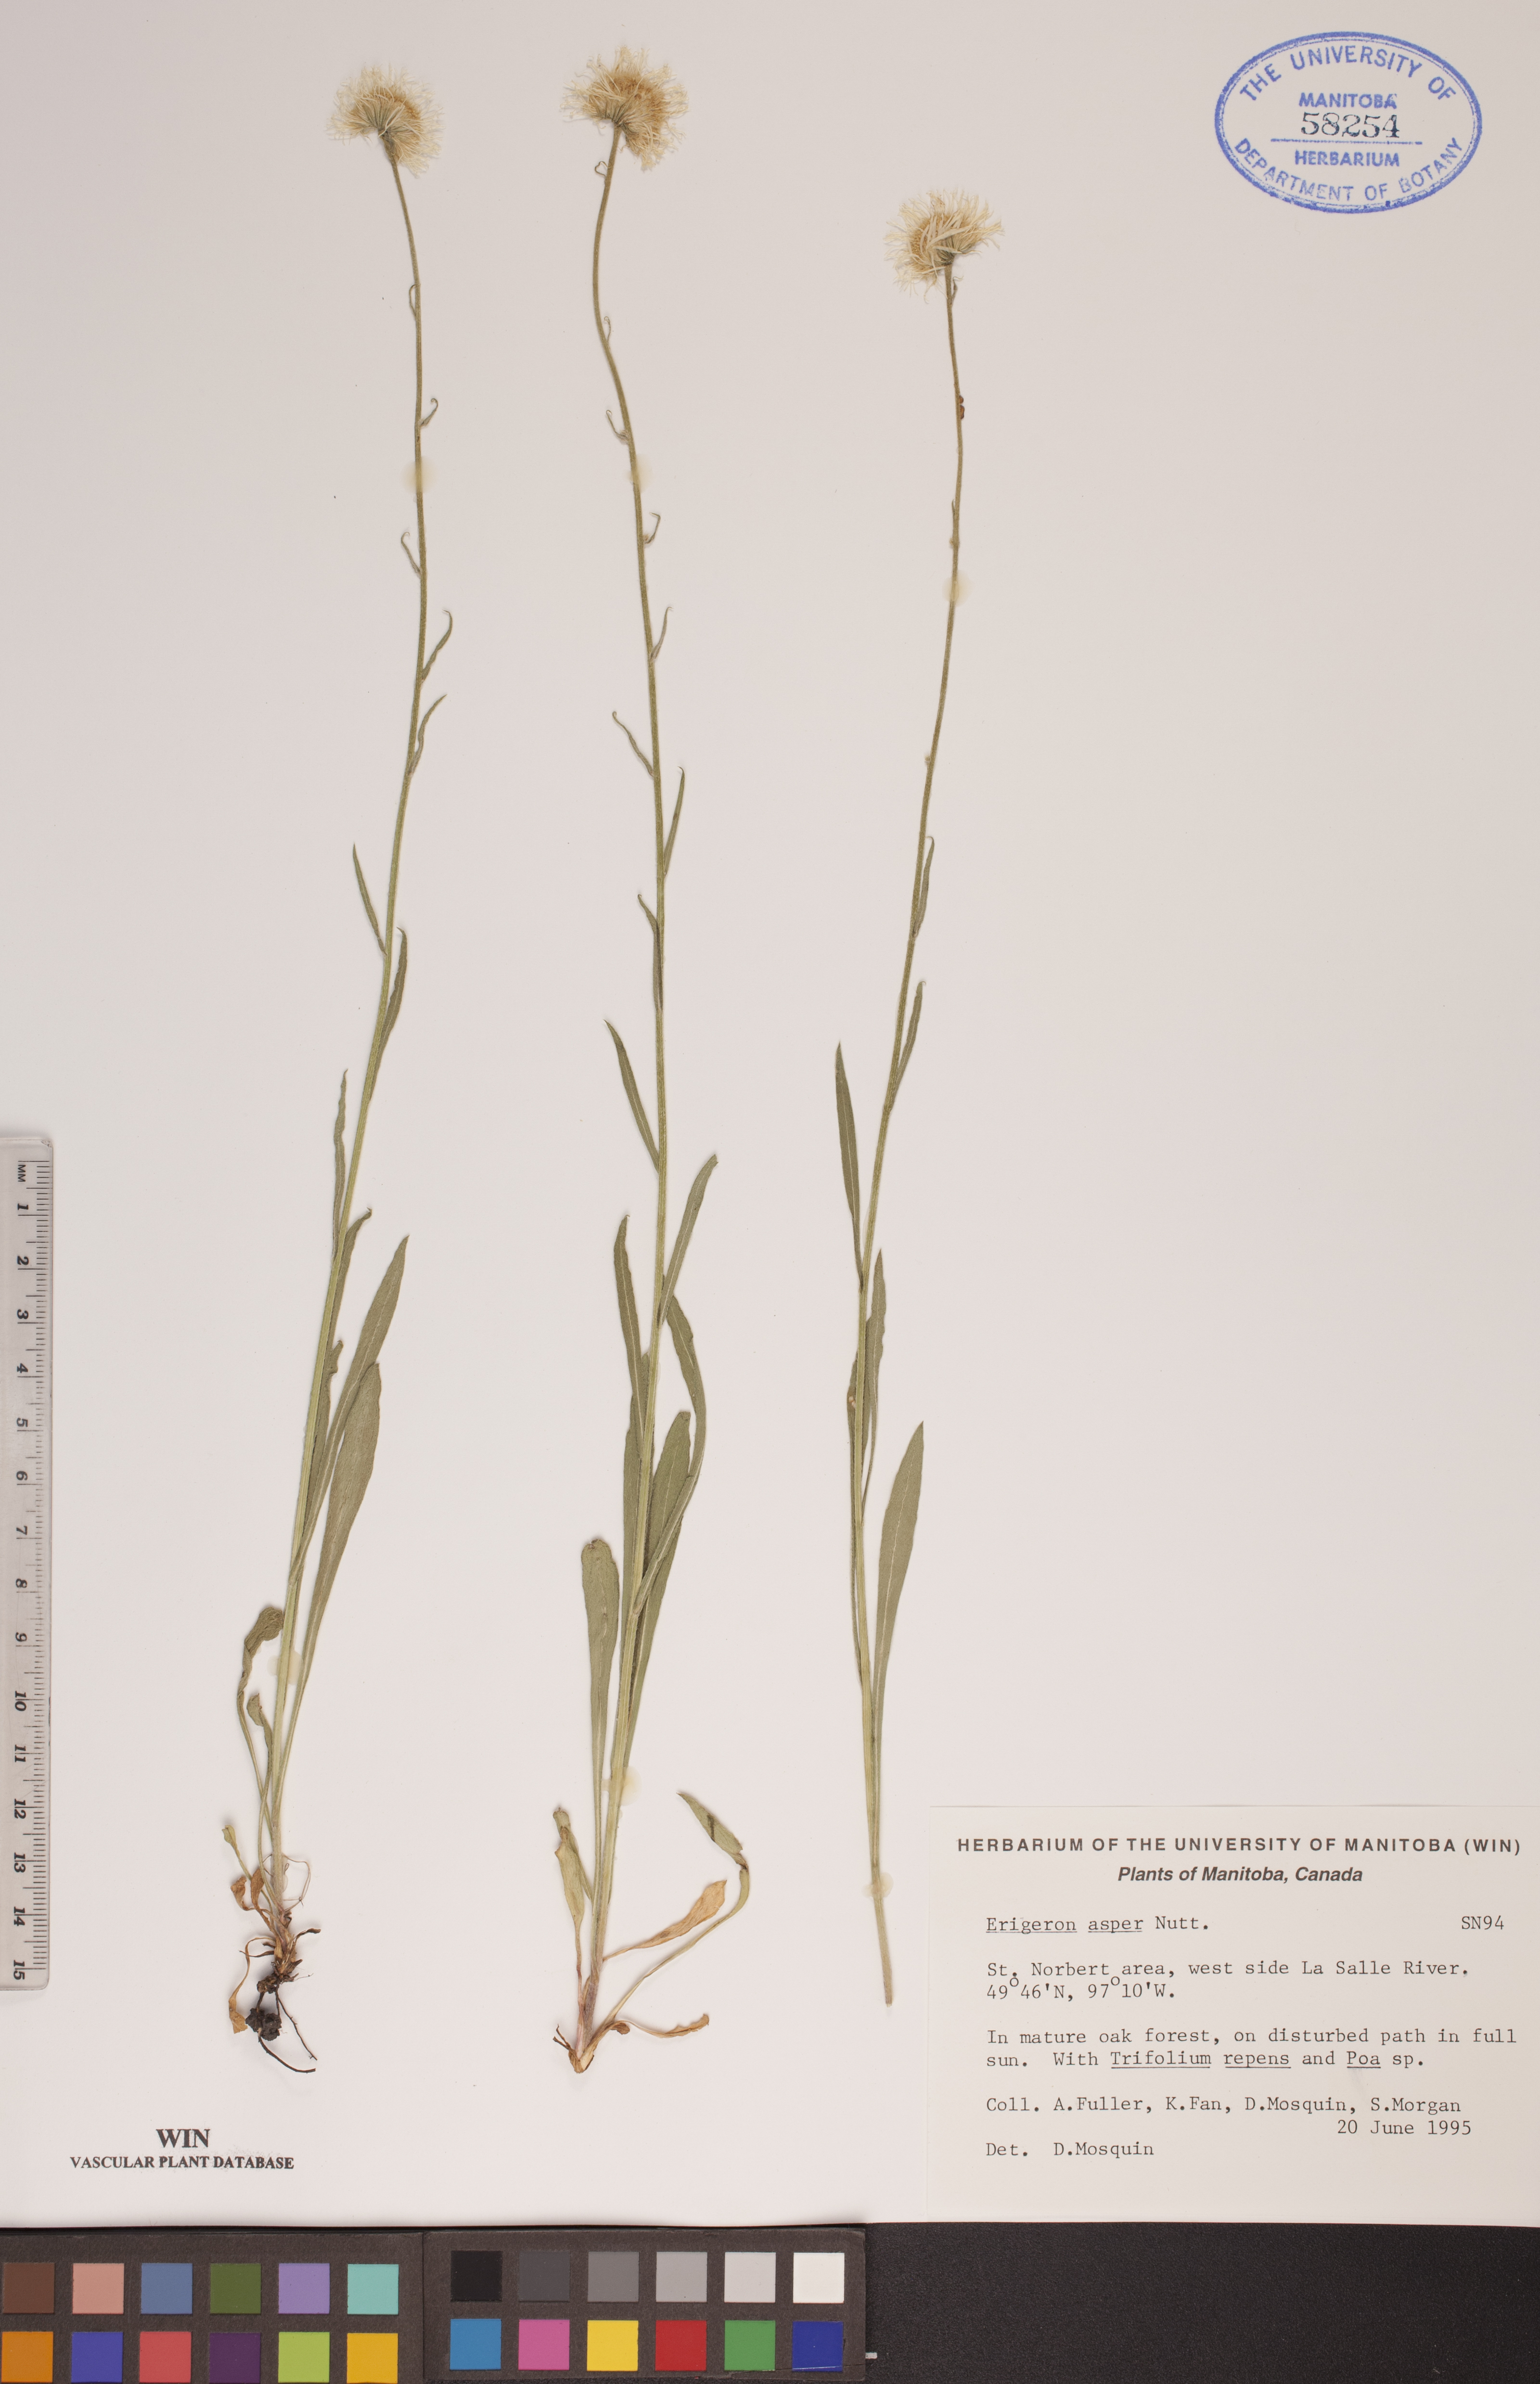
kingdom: Plantae
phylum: Tracheophyta
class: Magnoliopsida
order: Asterales
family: Asteraceae
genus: Erigeron
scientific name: Erigeron glabellus
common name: Smooth fleabane
